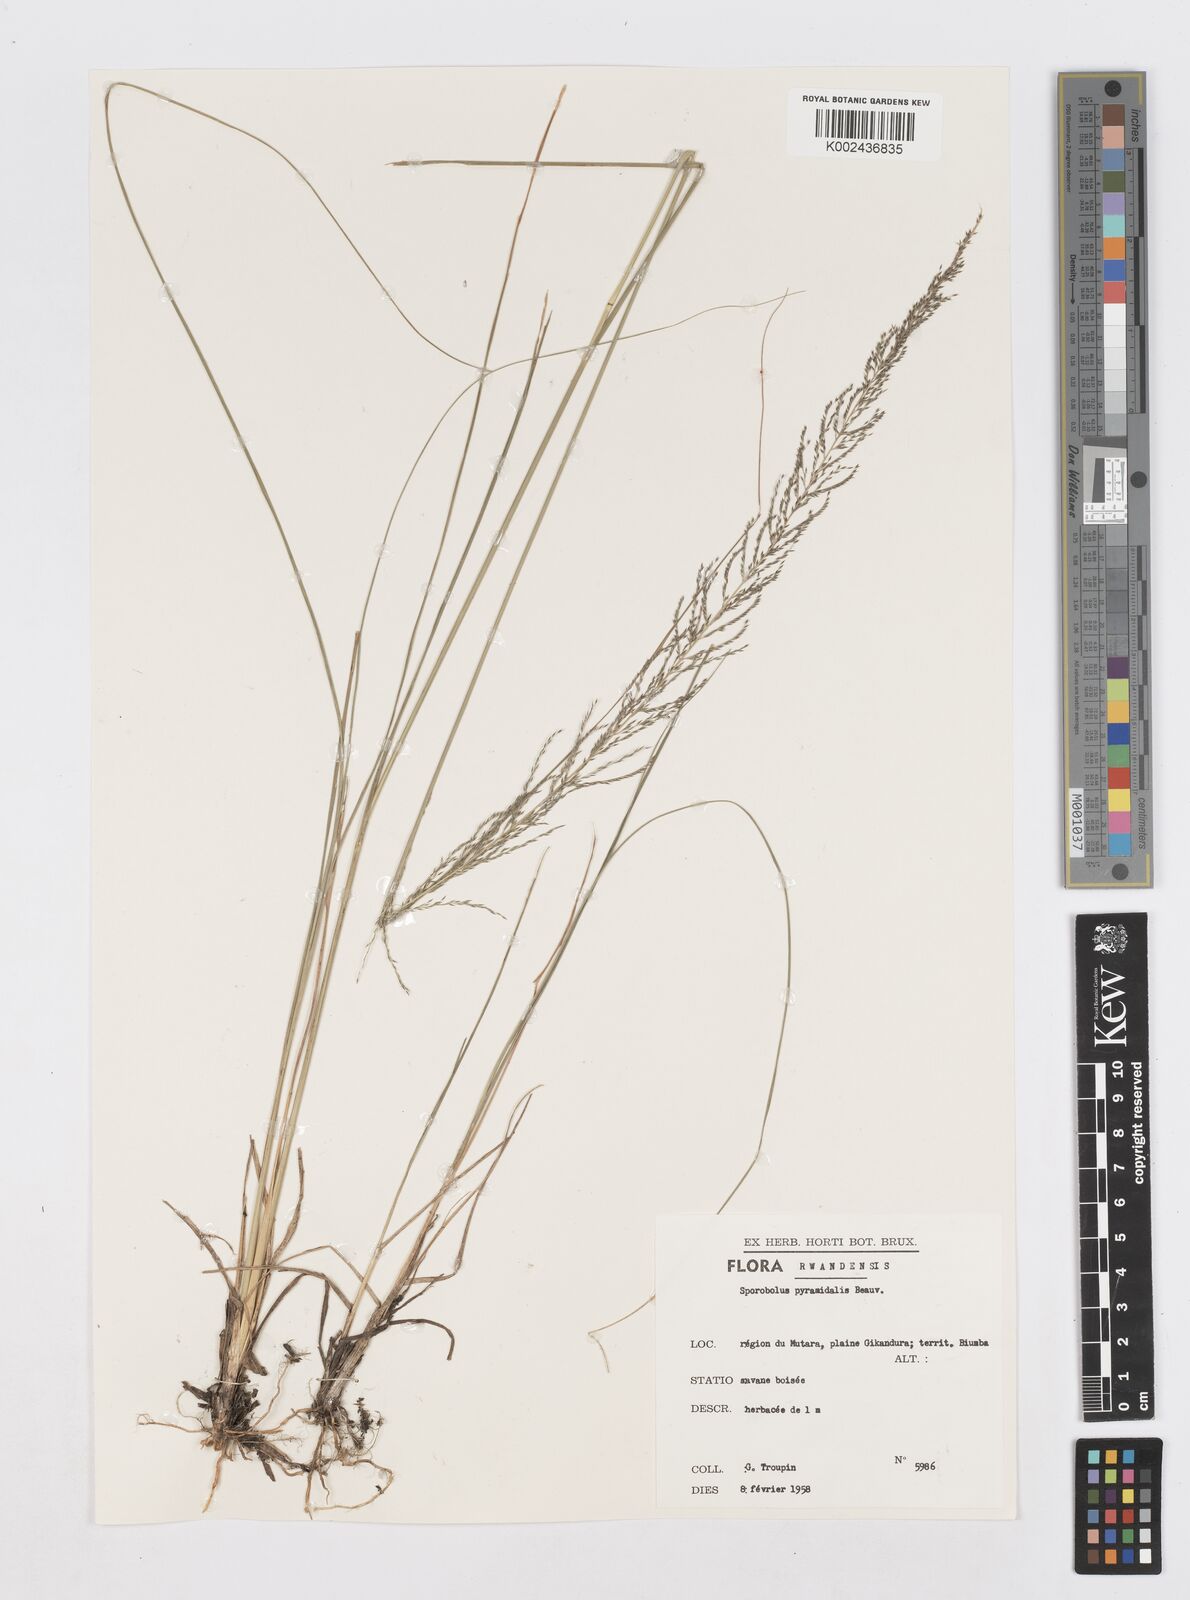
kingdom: Plantae
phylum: Tracheophyta
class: Liliopsida
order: Poales
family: Poaceae
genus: Sporobolus
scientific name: Sporobolus pyramidalis
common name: West indian dropseed
